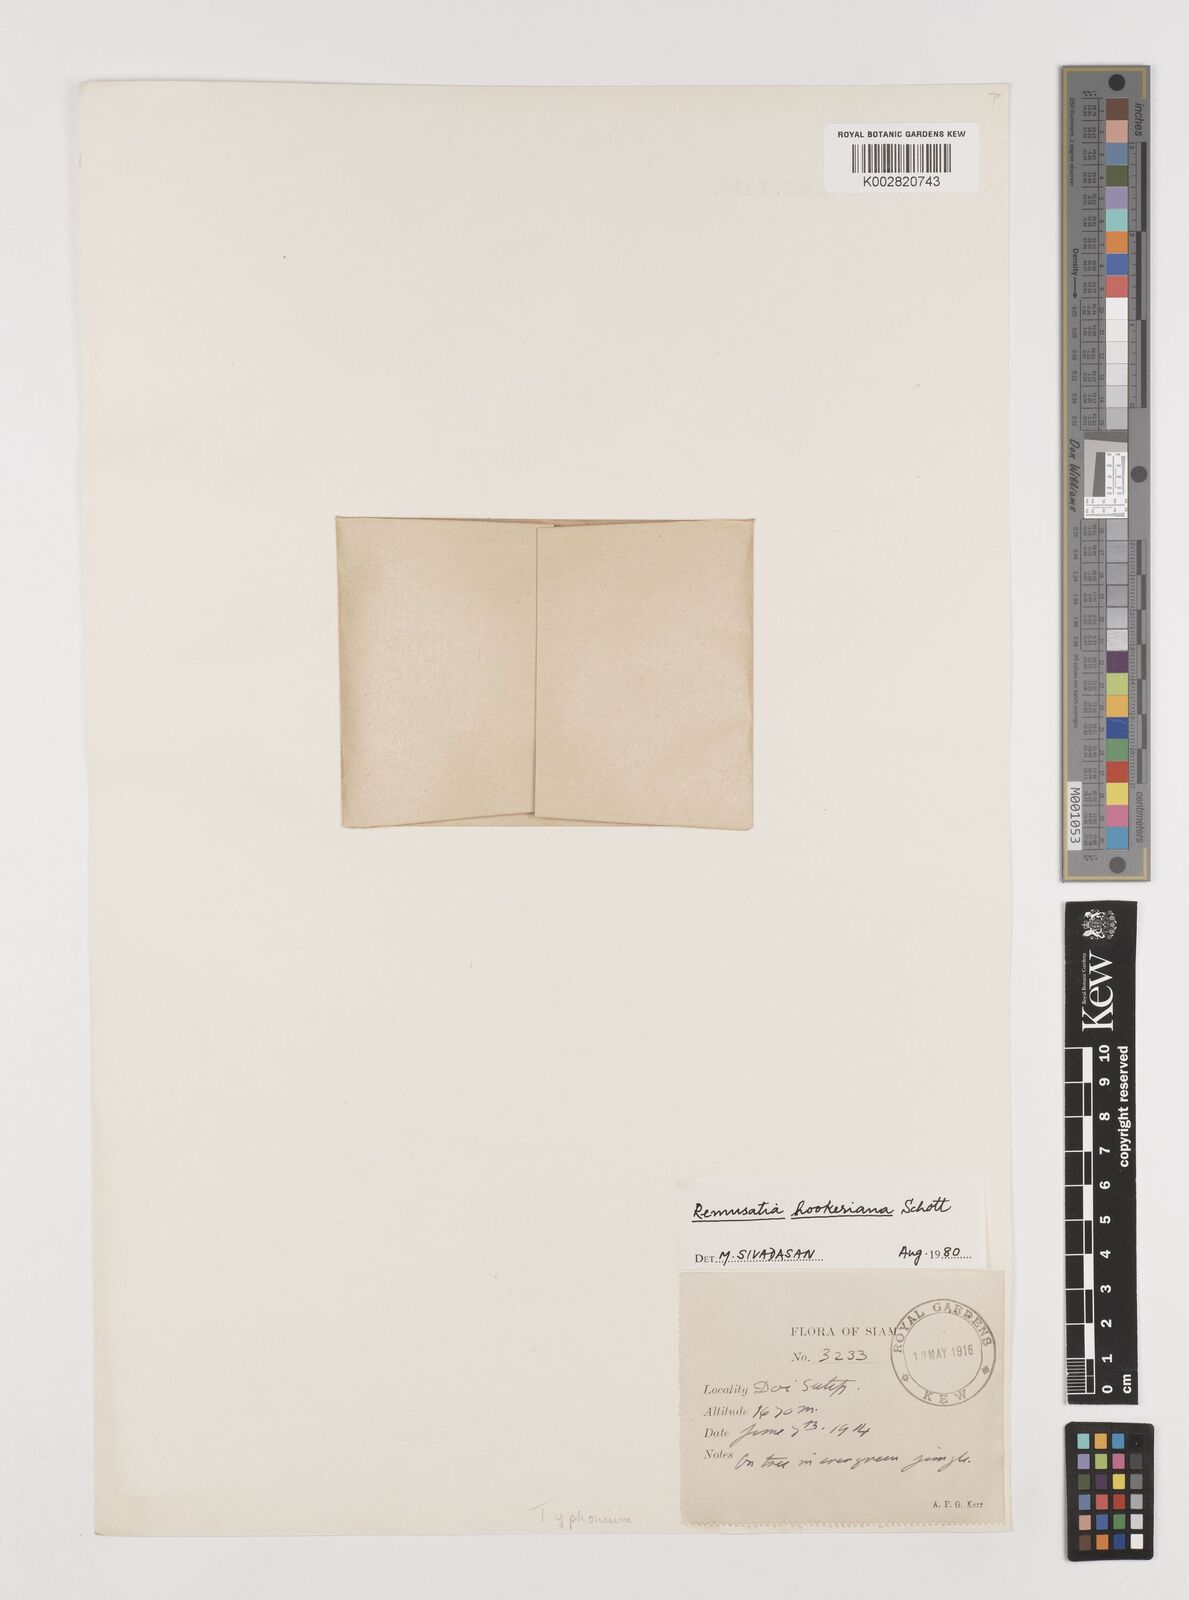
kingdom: Plantae
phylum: Tracheophyta
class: Liliopsida
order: Alismatales
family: Araceae
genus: Remusatia
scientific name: Remusatia hookeriana
